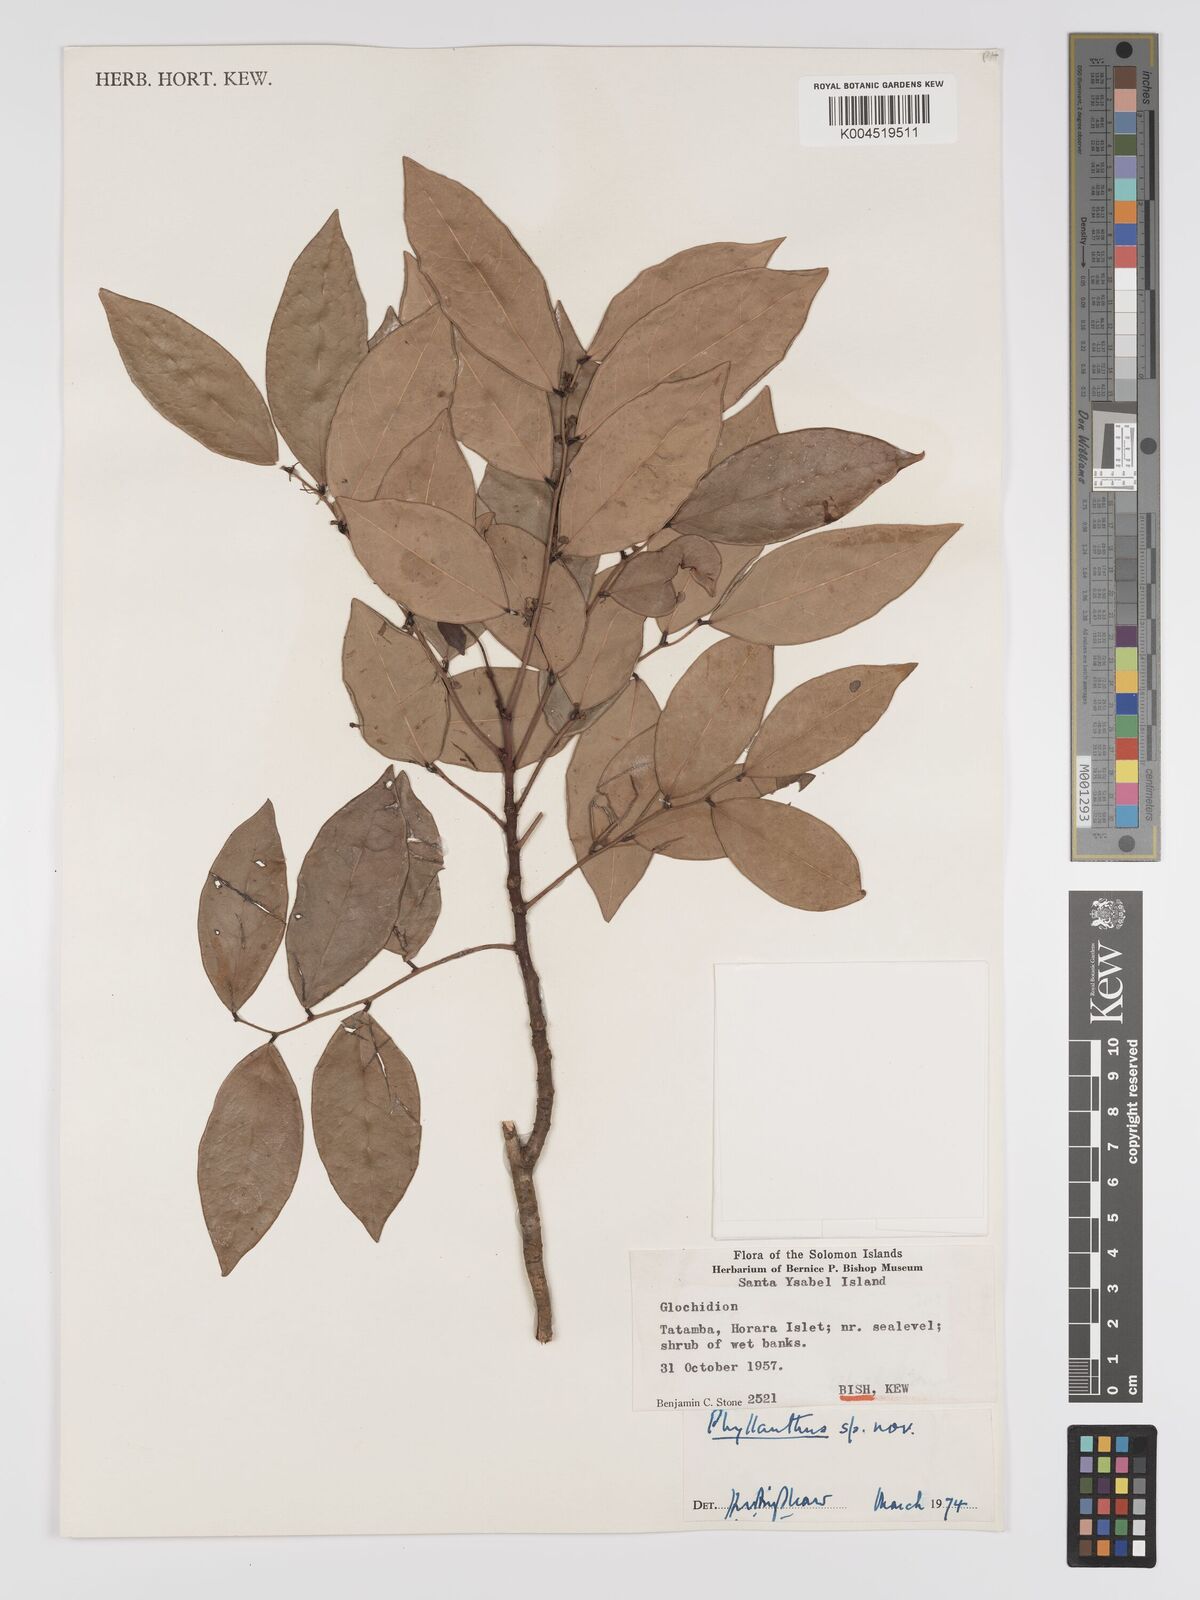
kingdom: Plantae
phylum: Tracheophyta
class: Magnoliopsida
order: Malpighiales
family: Phyllanthaceae
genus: Phyllanthus
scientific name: Phyllanthus
